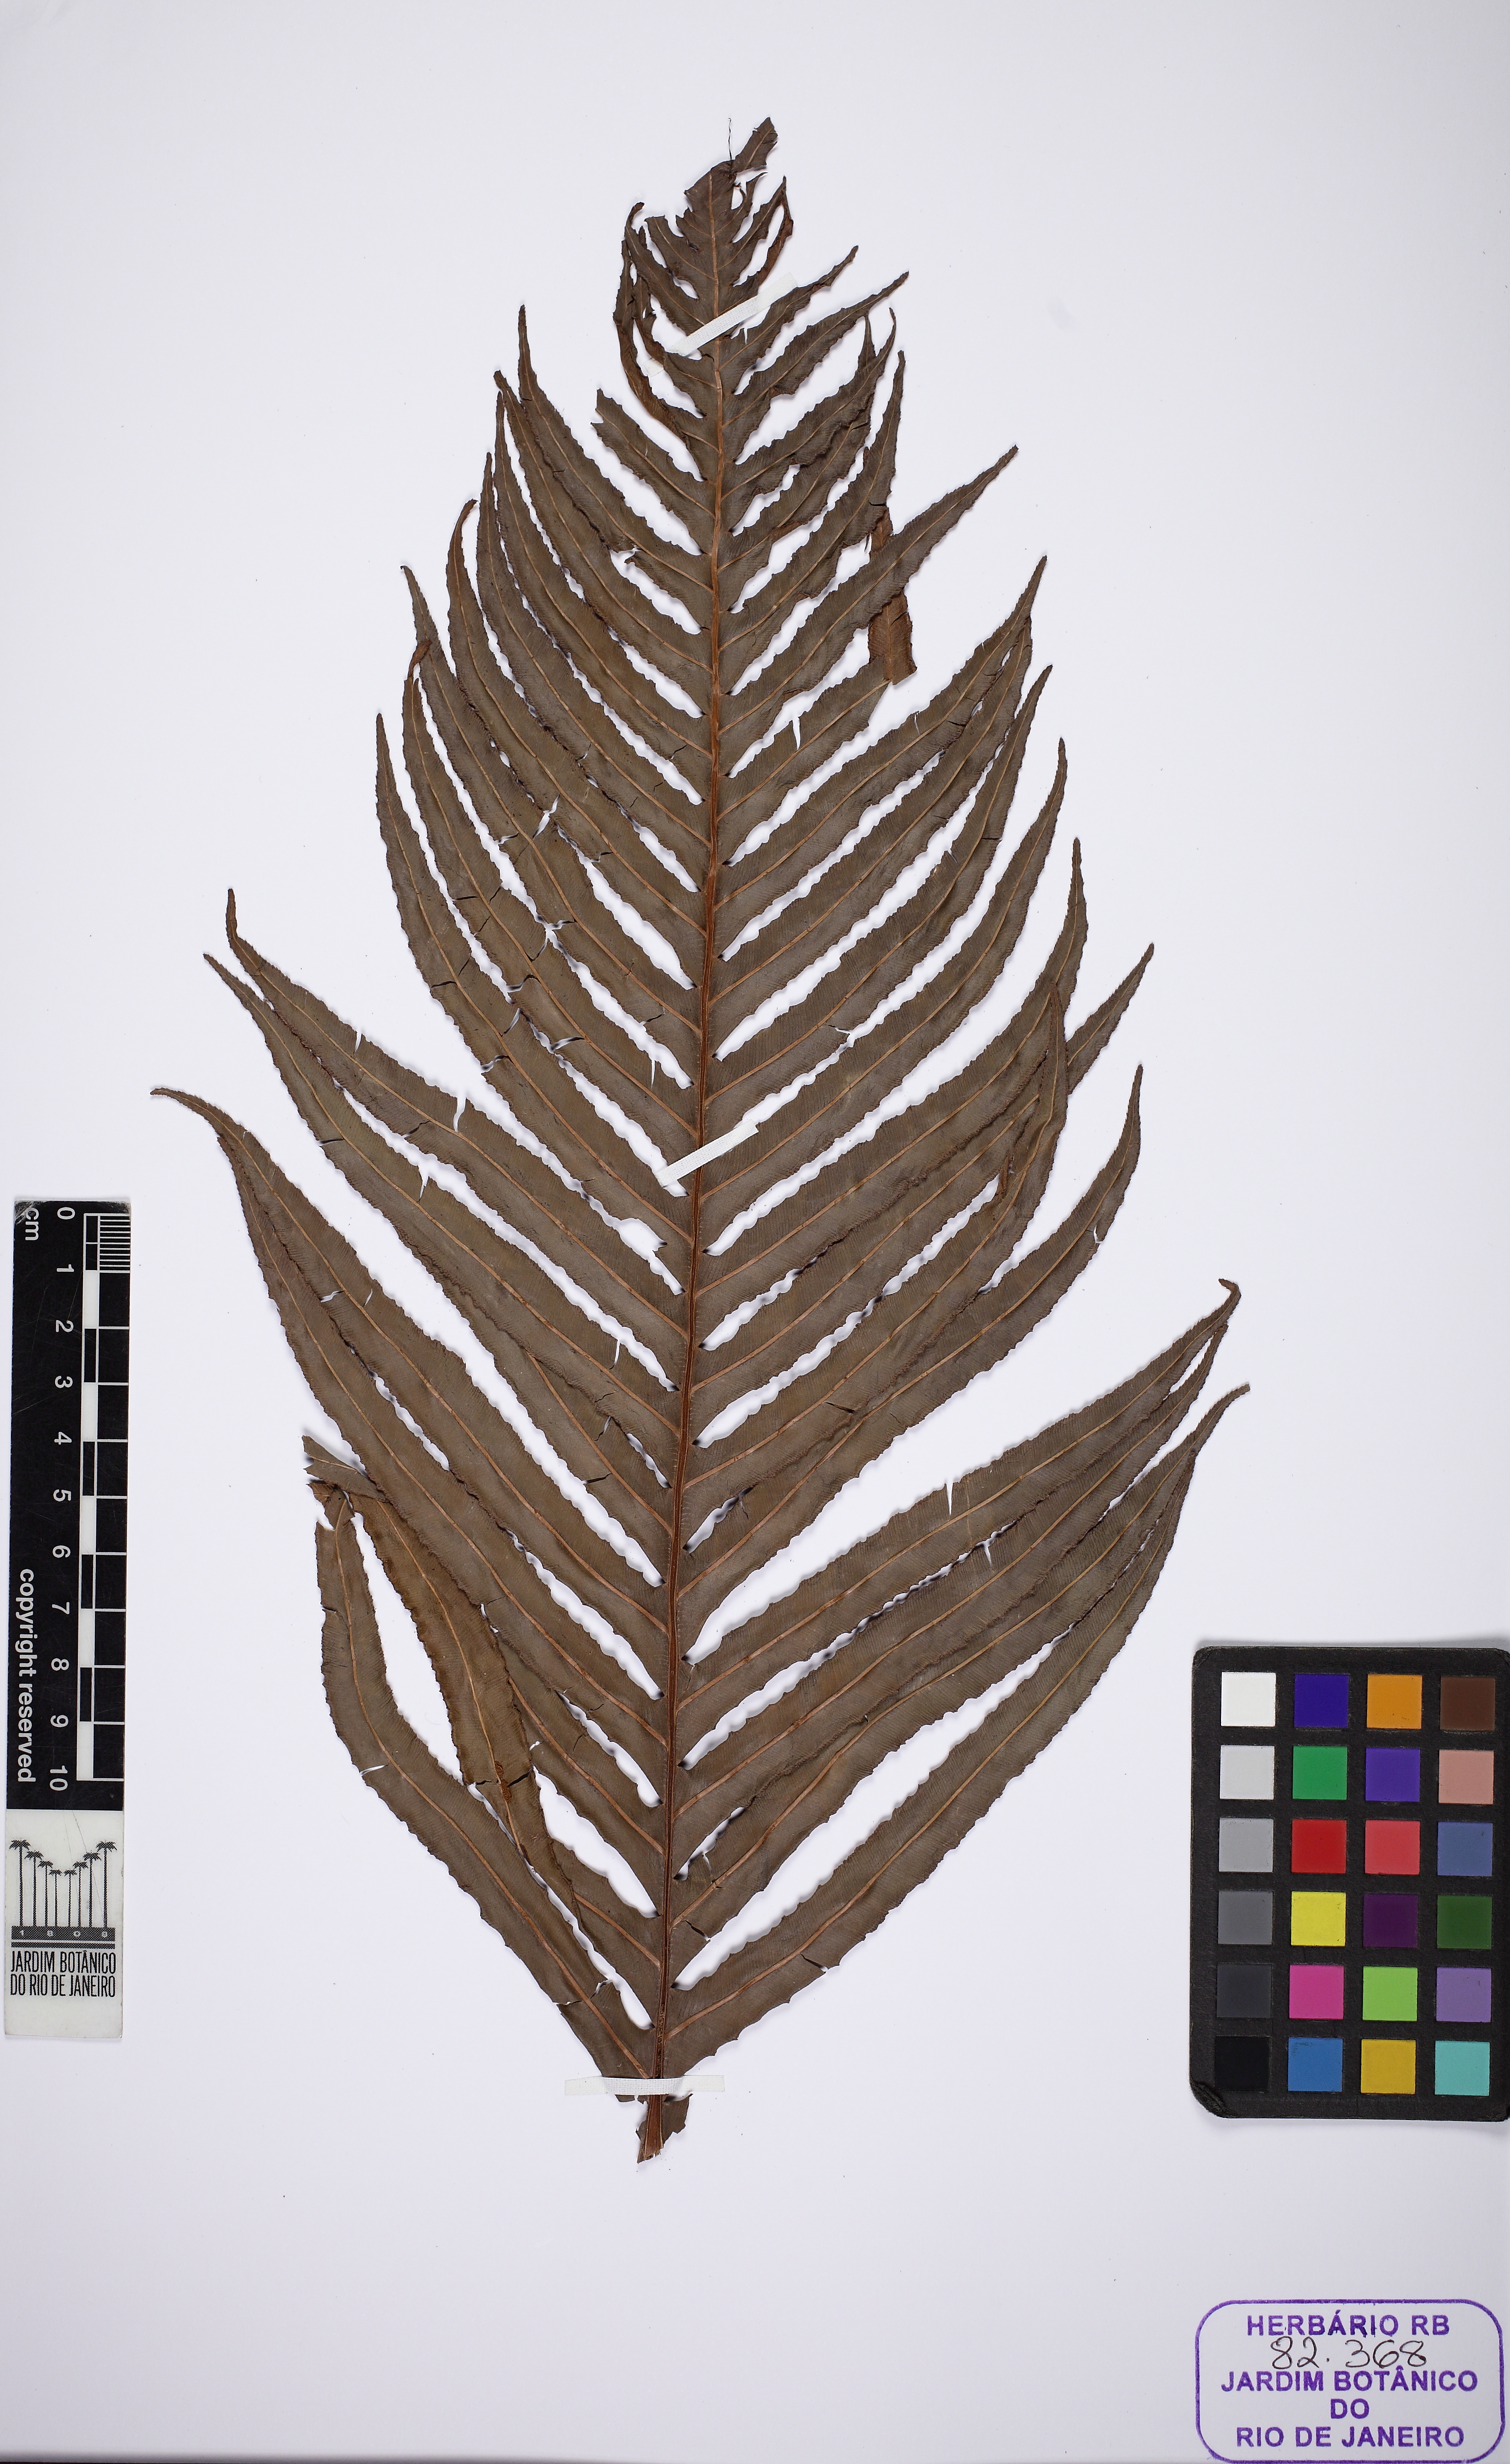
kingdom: Plantae
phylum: Tracheophyta
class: Polypodiopsida
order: Polypodiales
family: Blechnaceae
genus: Neoblechnum
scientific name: Neoblechnum brasiliense
